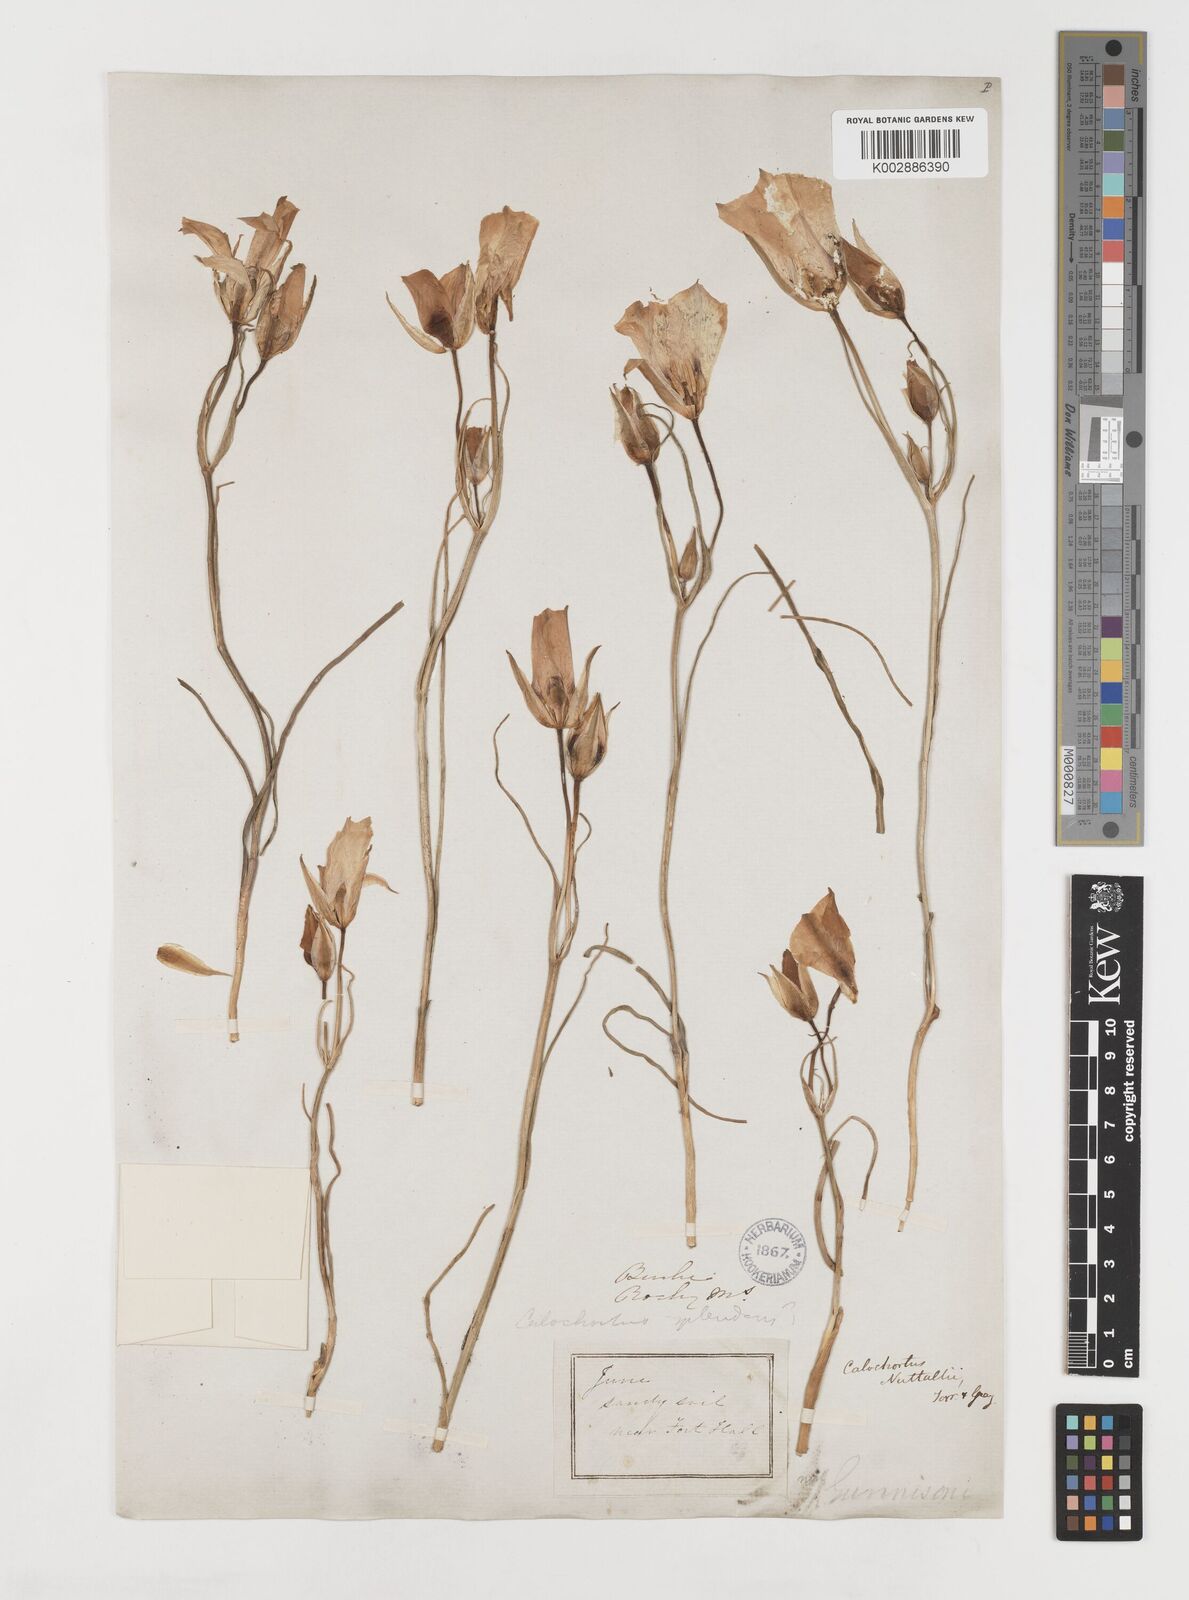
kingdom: Plantae
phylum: Tracheophyta
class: Liliopsida
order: Liliales
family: Liliaceae
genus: Calochortus
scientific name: Calochortus leichtlinii
